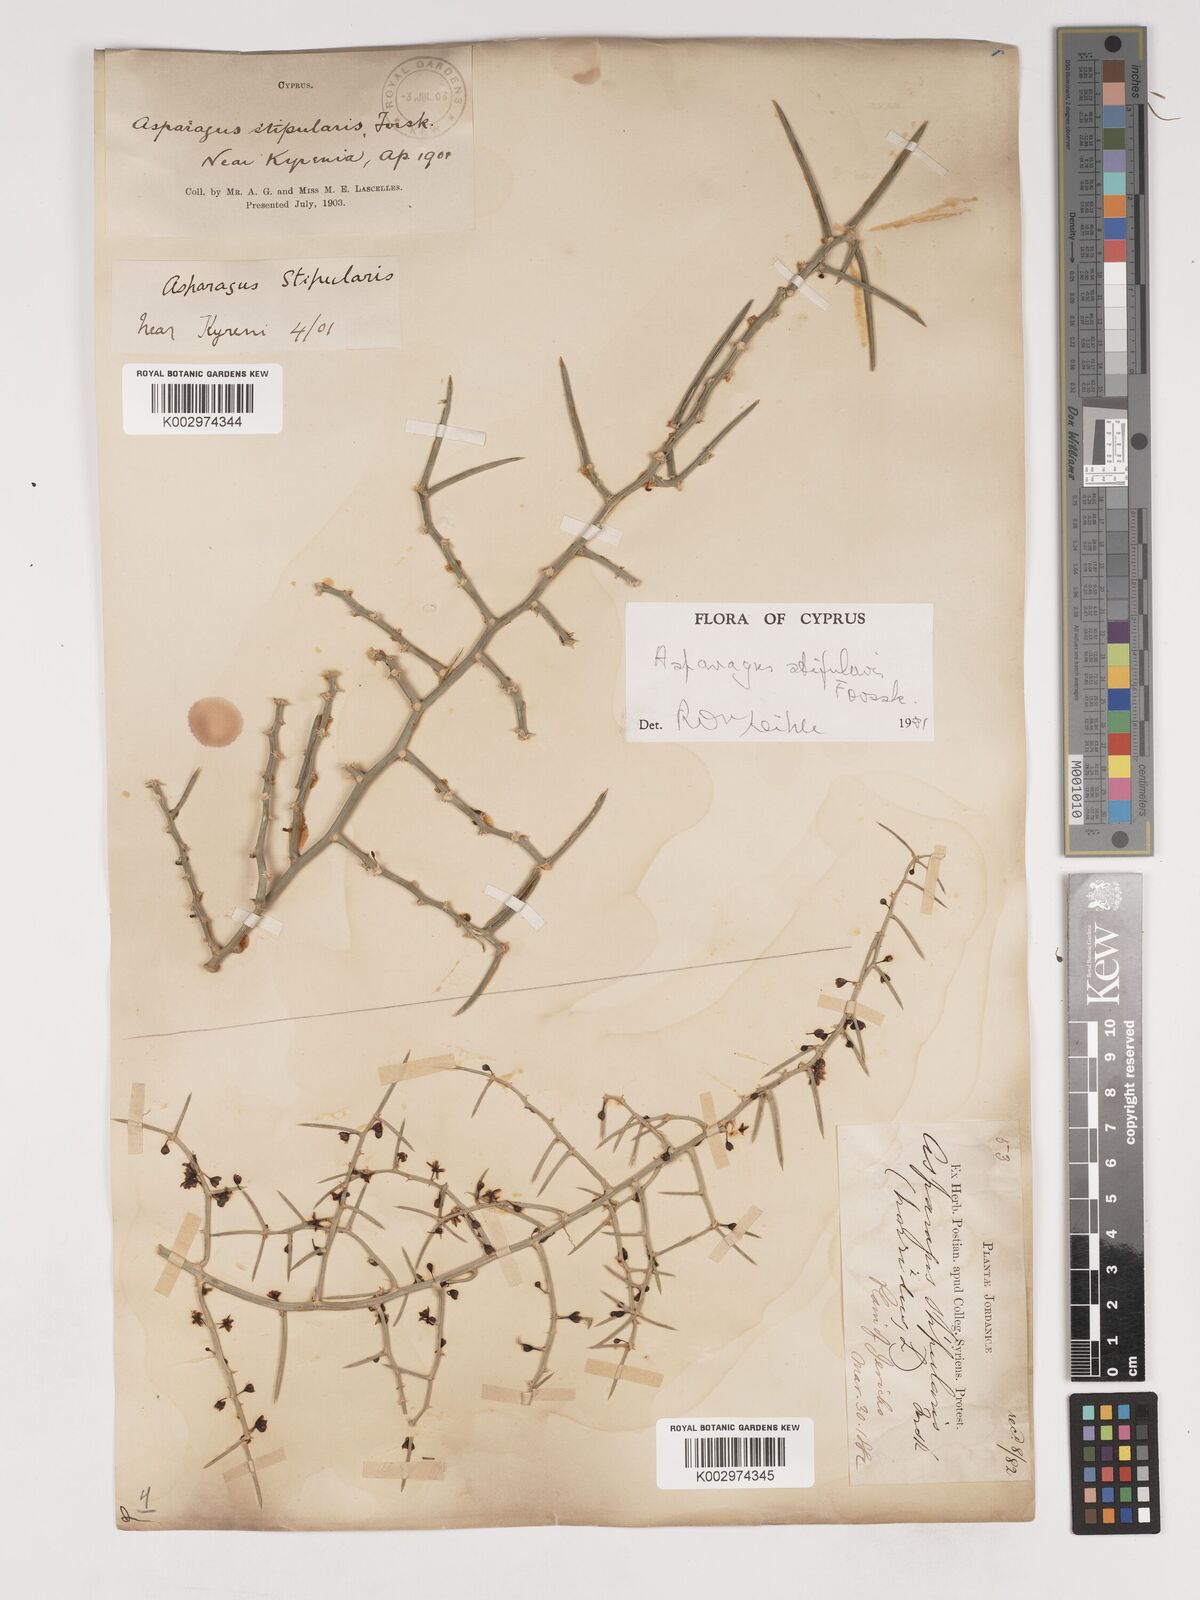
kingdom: Plantae
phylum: Tracheophyta
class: Liliopsida
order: Asparagales
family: Asparagaceae
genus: Asparagus
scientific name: Asparagus horridus
